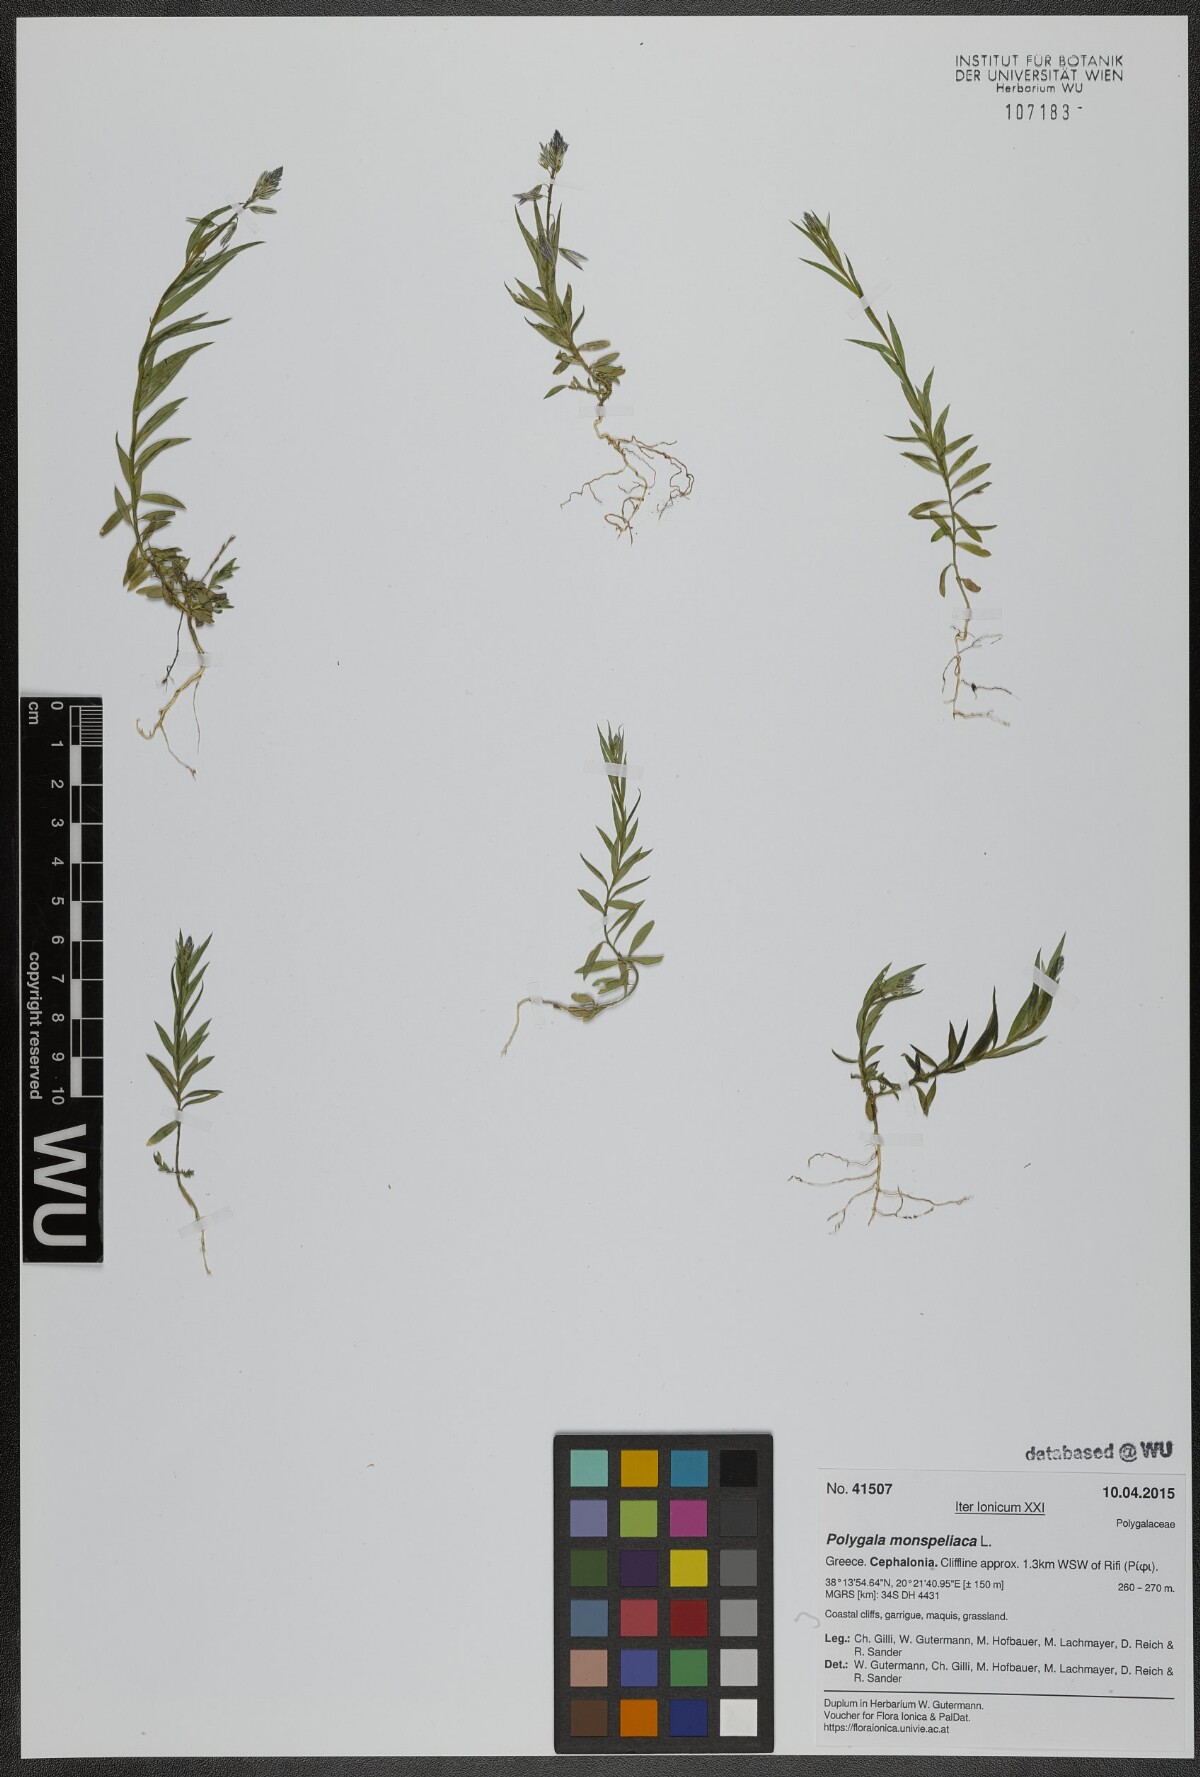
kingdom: Plantae
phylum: Tracheophyta
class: Magnoliopsida
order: Fabales
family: Polygalaceae
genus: Polygala
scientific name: Polygala monspeliaca
